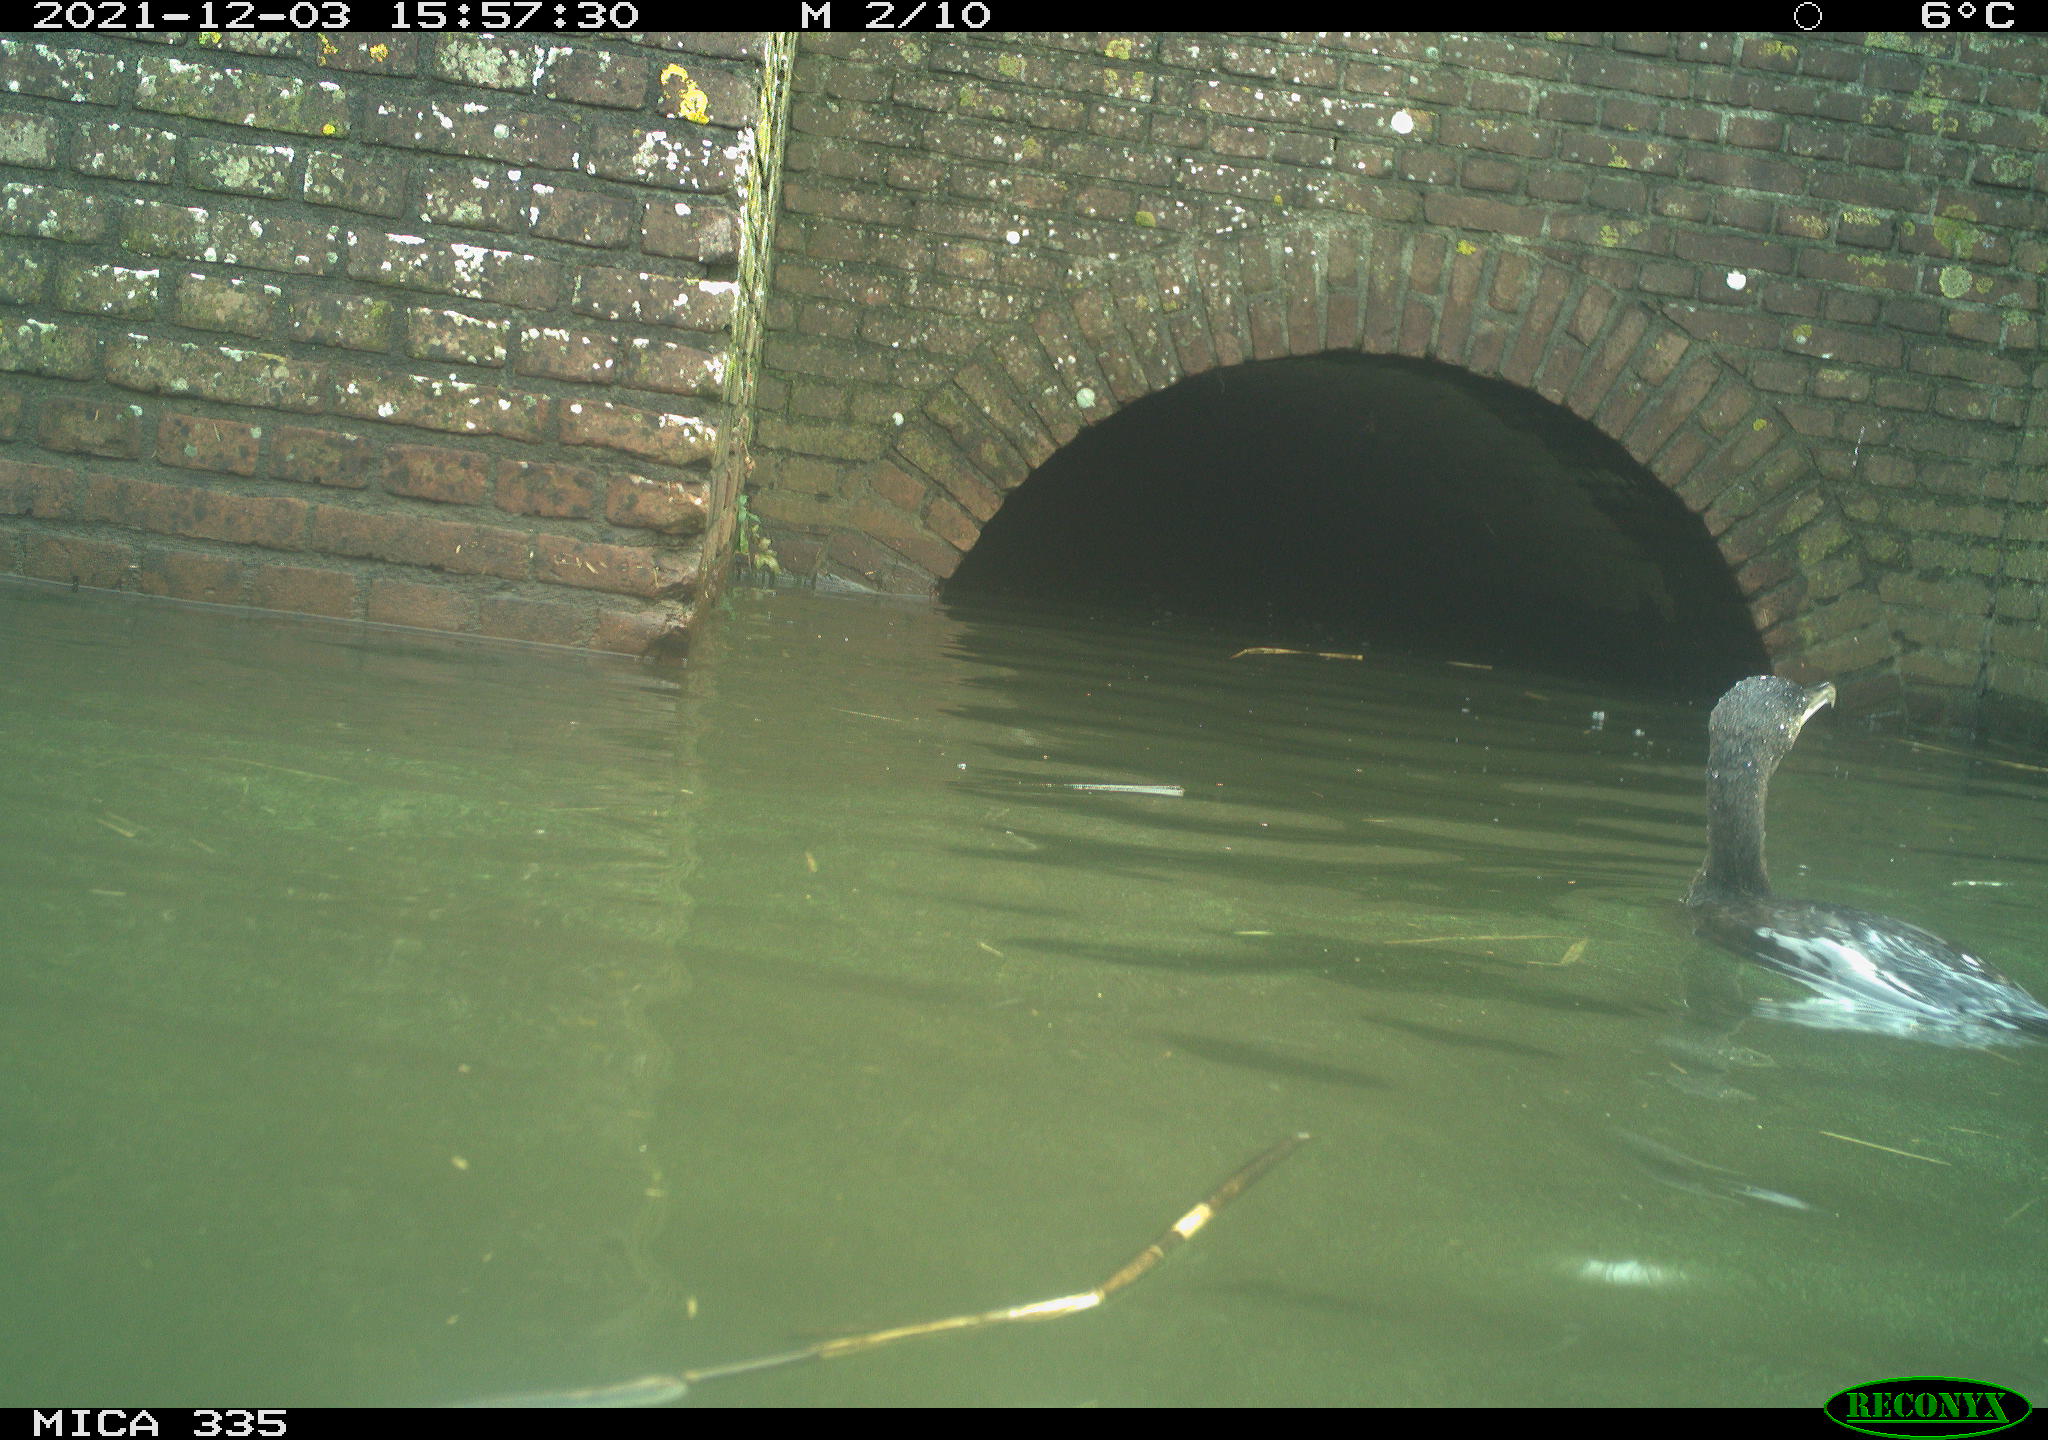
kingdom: Animalia
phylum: Chordata
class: Aves
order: Suliformes
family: Phalacrocoracidae
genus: Phalacrocorax
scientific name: Phalacrocorax carbo
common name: Great cormorant
